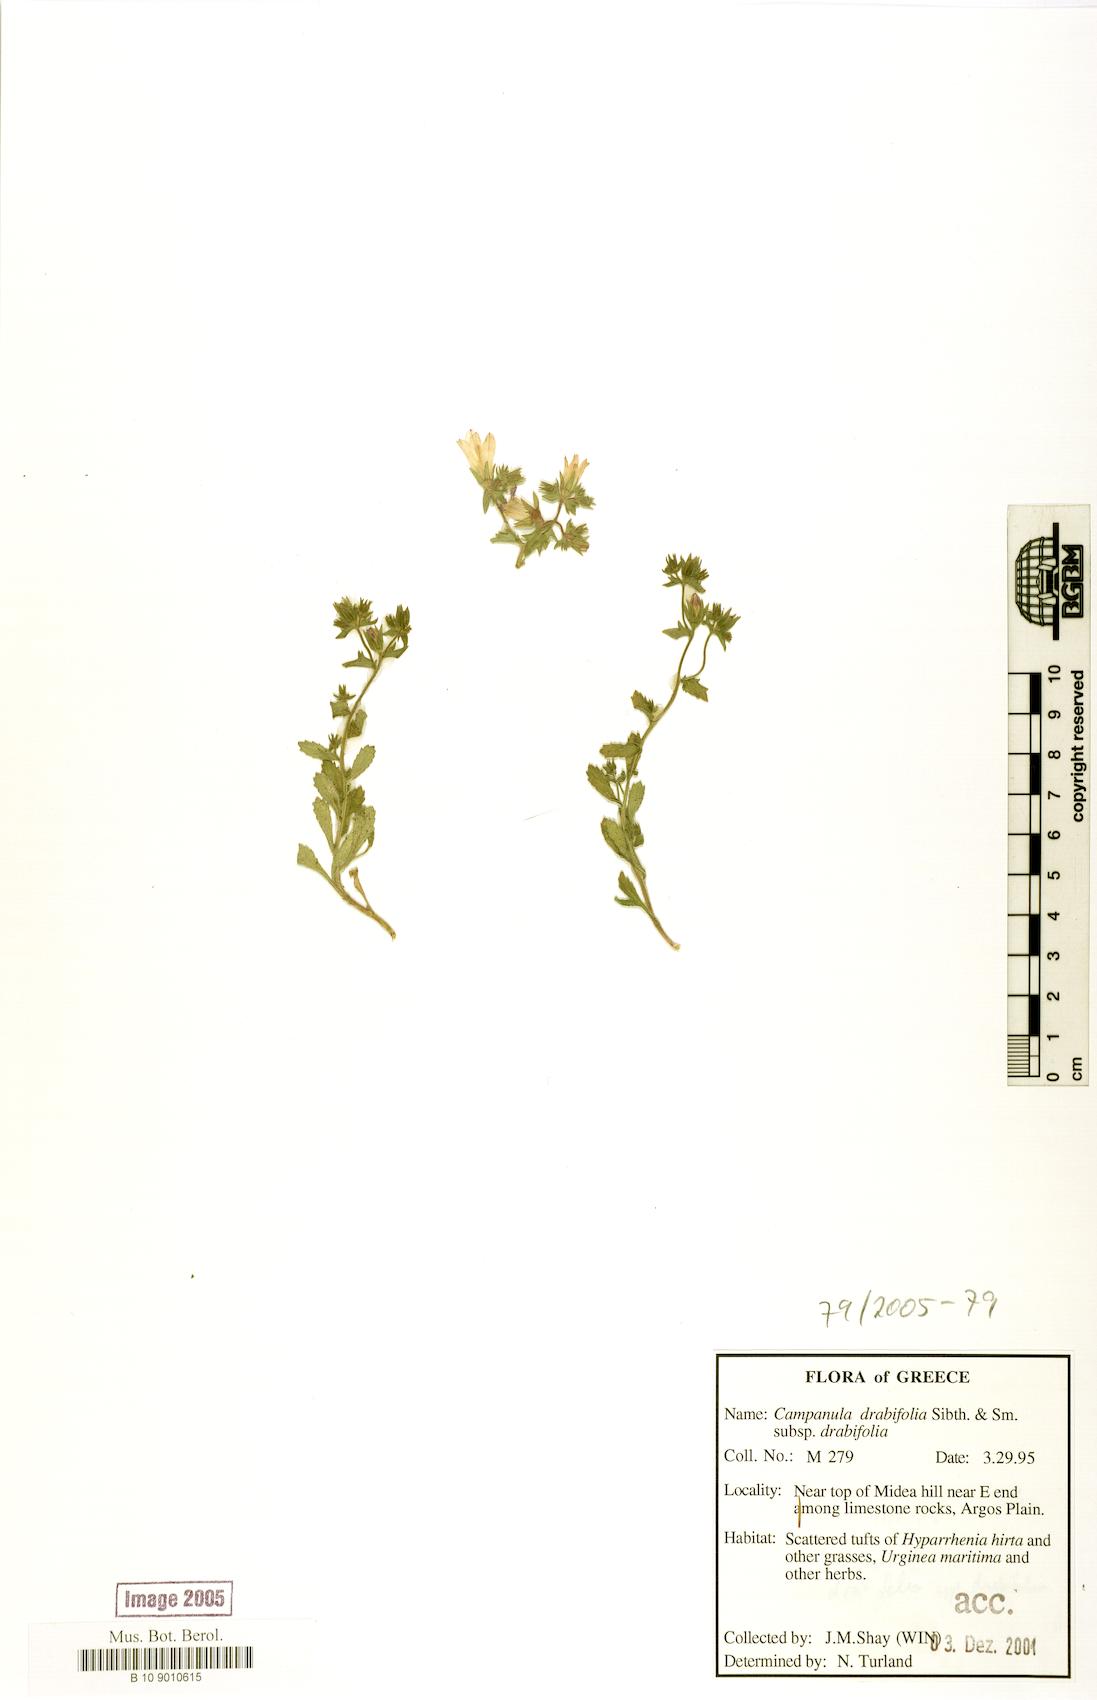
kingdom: Plantae
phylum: Tracheophyta
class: Magnoliopsida
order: Asterales
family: Campanulaceae
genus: Campanula
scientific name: Campanula drabifolia
